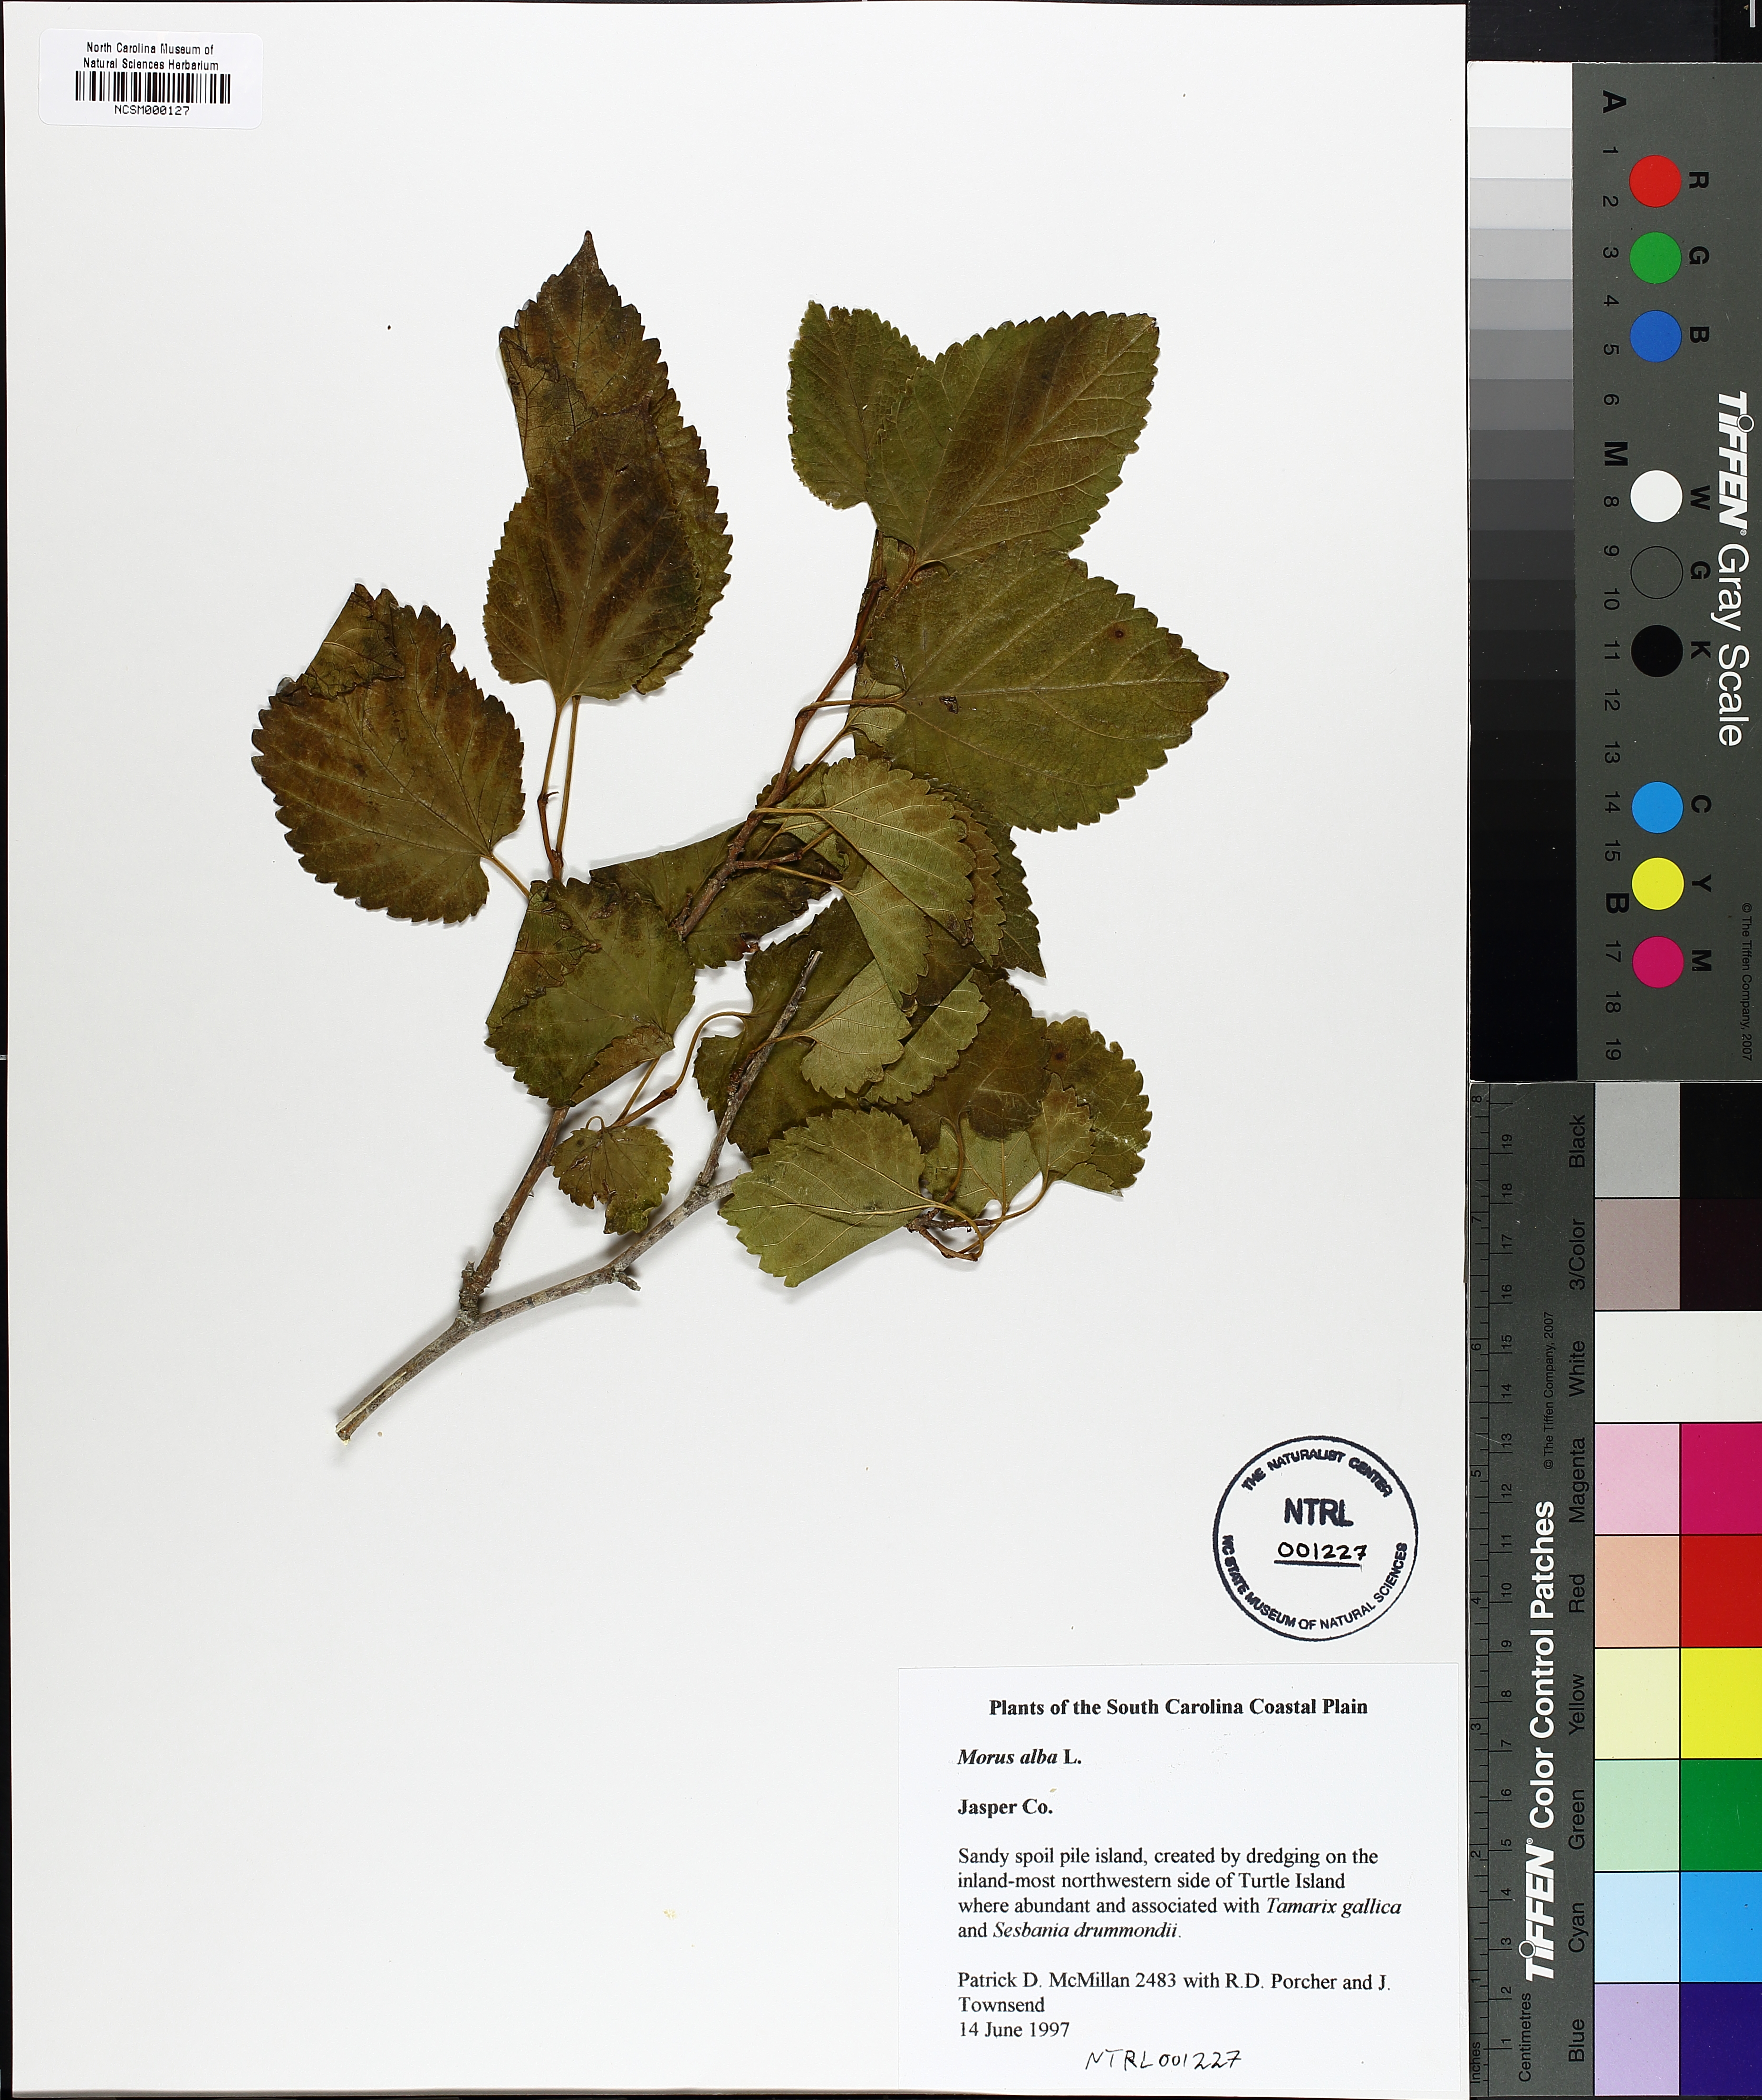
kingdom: Plantae
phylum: Tracheophyta
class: Magnoliopsida
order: Rosales
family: Moraceae
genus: Morus
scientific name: Morus alba
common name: White mulberry
